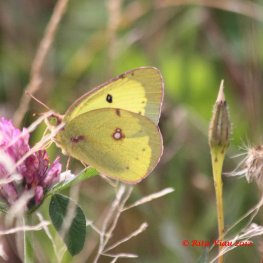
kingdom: Animalia
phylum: Arthropoda
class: Insecta
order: Lepidoptera
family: Pieridae
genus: Colias
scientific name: Colias philodice
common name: Clouded Sulphur
